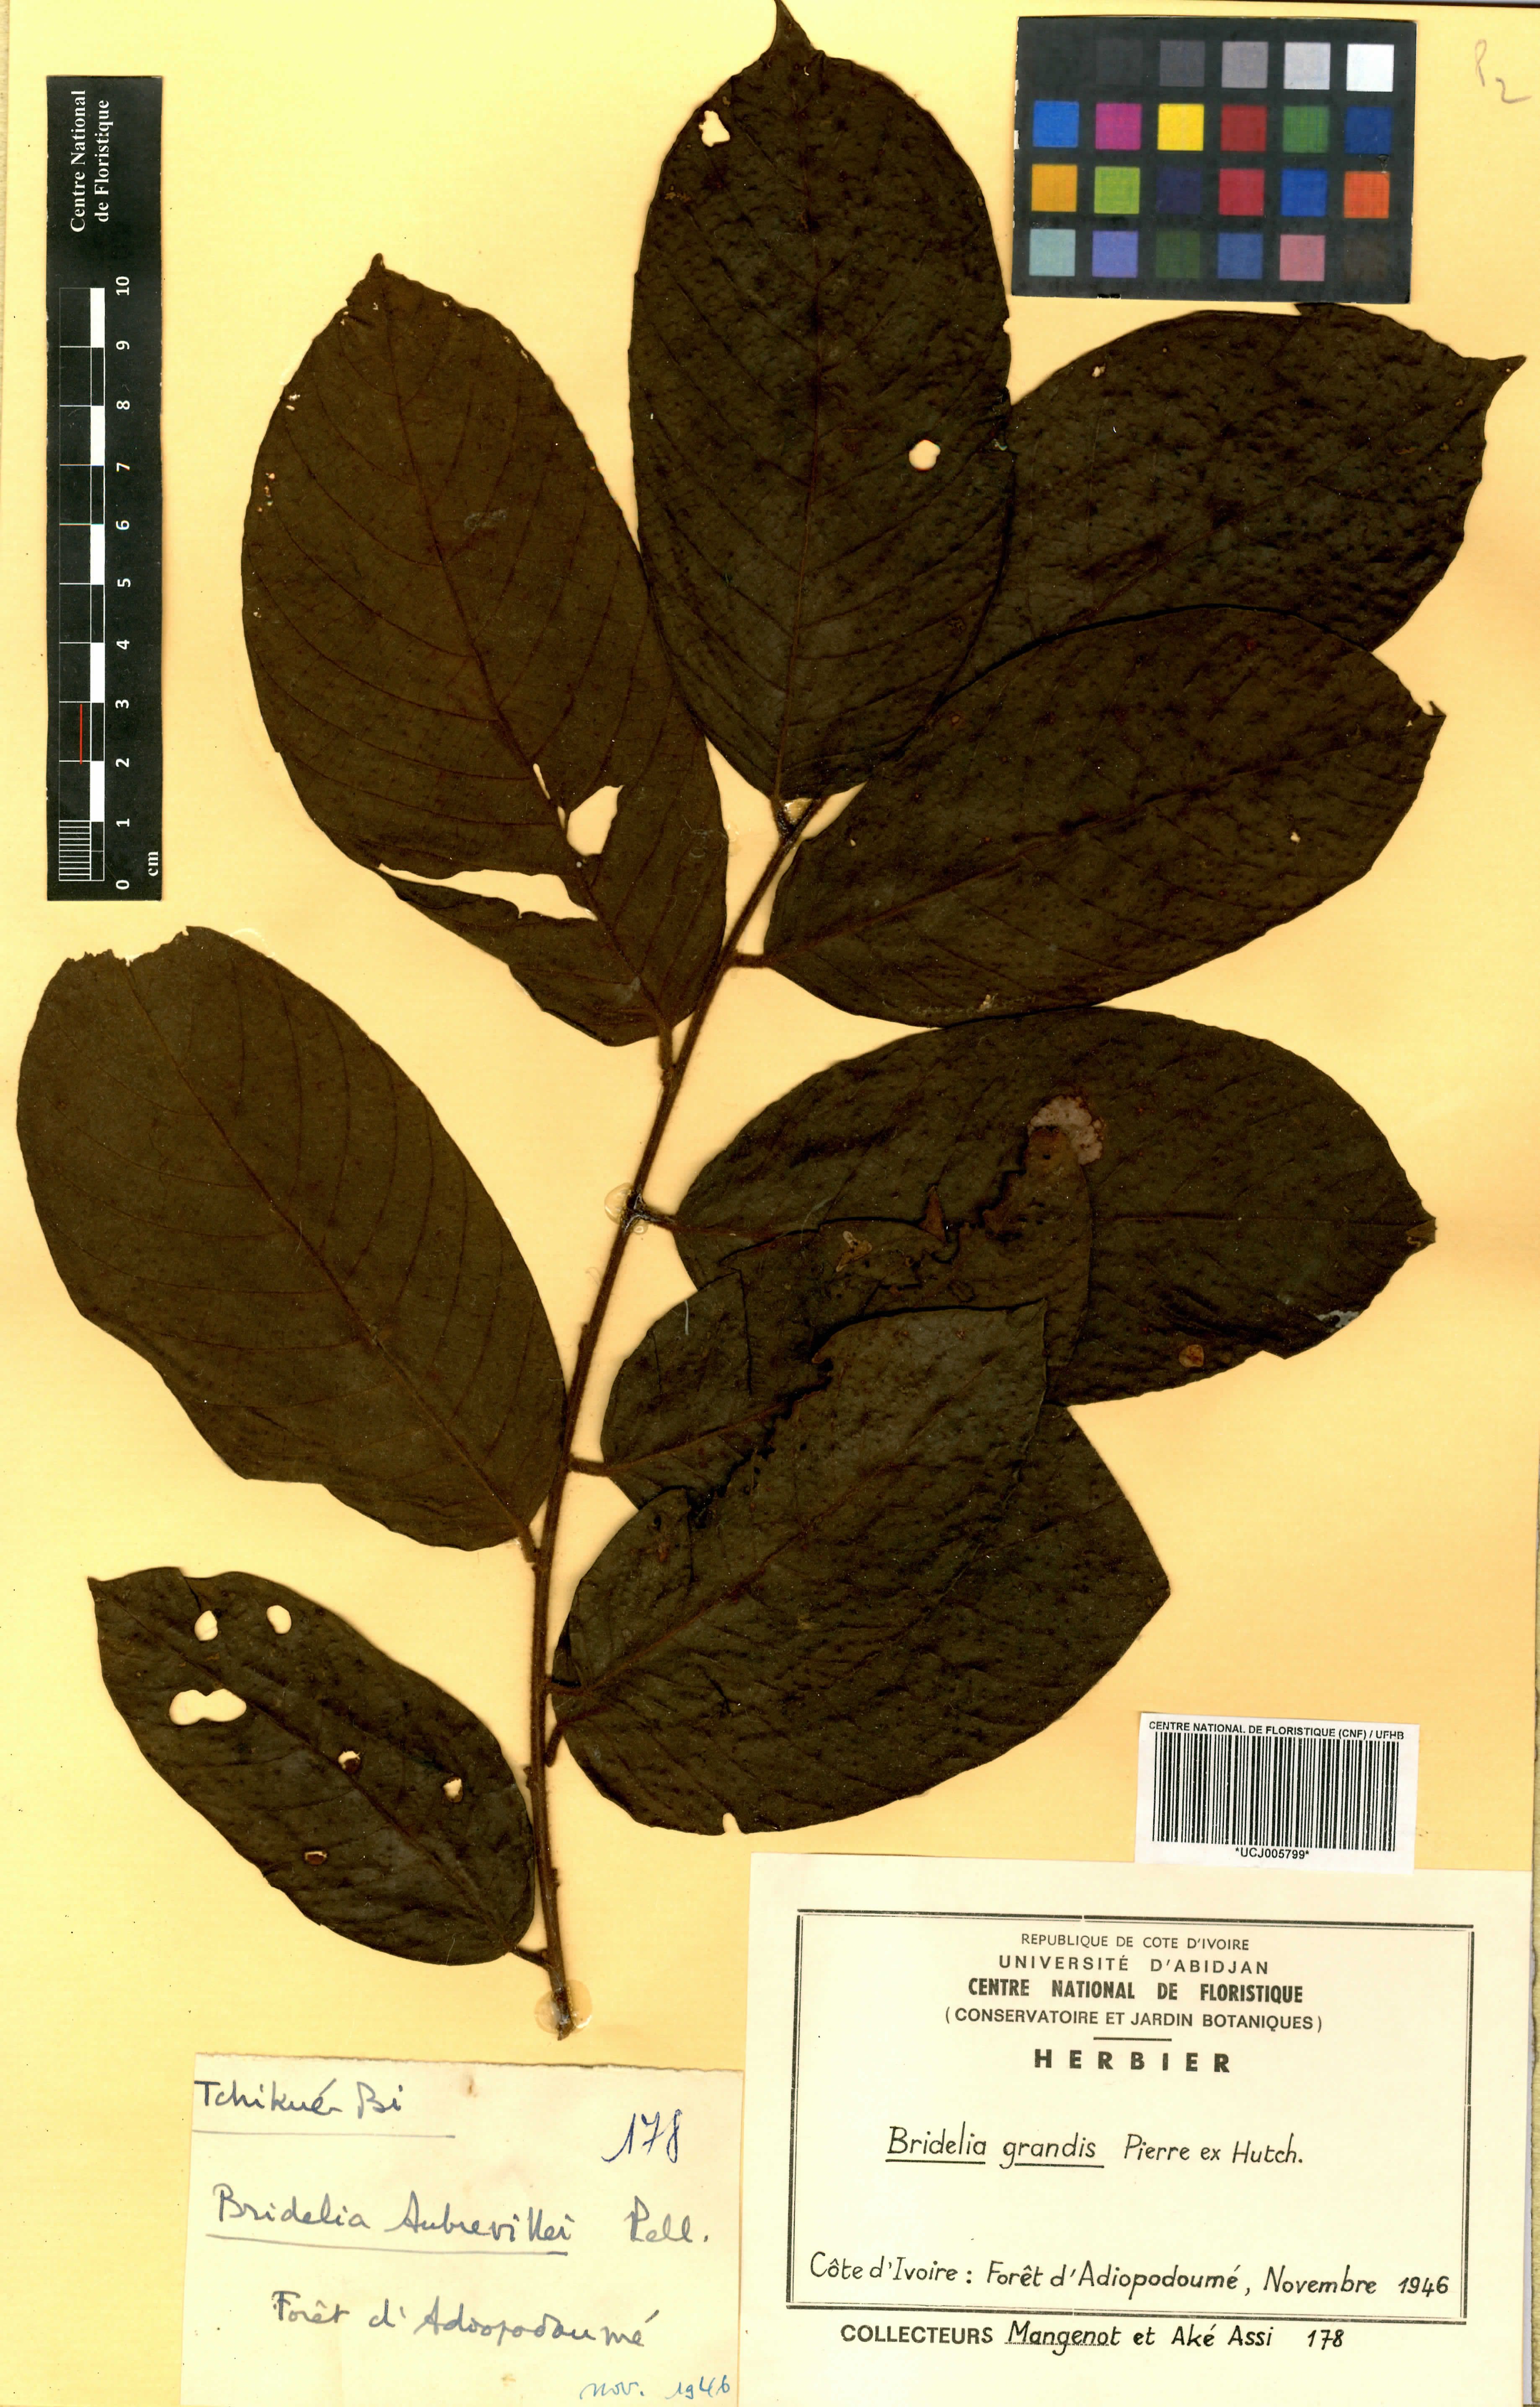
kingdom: Plantae
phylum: Tracheophyta
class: Magnoliopsida
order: Malpighiales
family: Phyllanthaceae
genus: Bridelia
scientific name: Bridelia grandis
